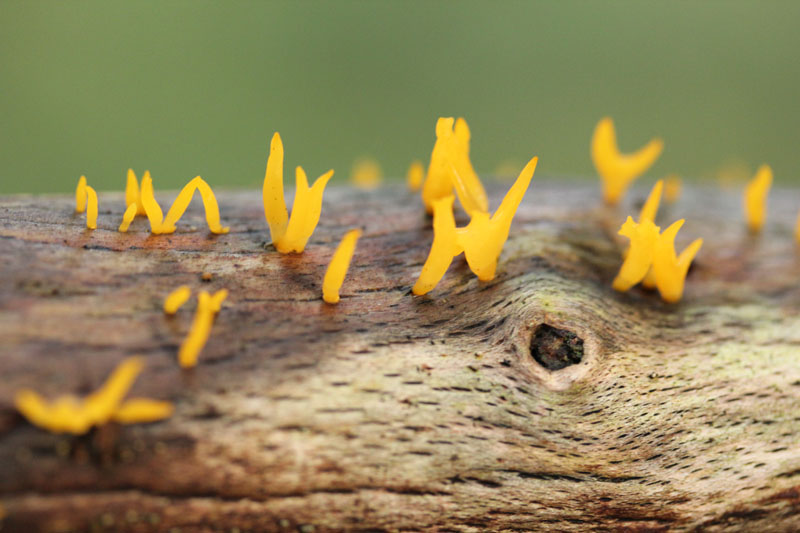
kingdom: Fungi
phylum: Basidiomycota
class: Dacrymycetes
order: Dacrymycetales
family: Dacrymycetaceae
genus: Calocera
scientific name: Calocera cornea
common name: liden guldgaffel
